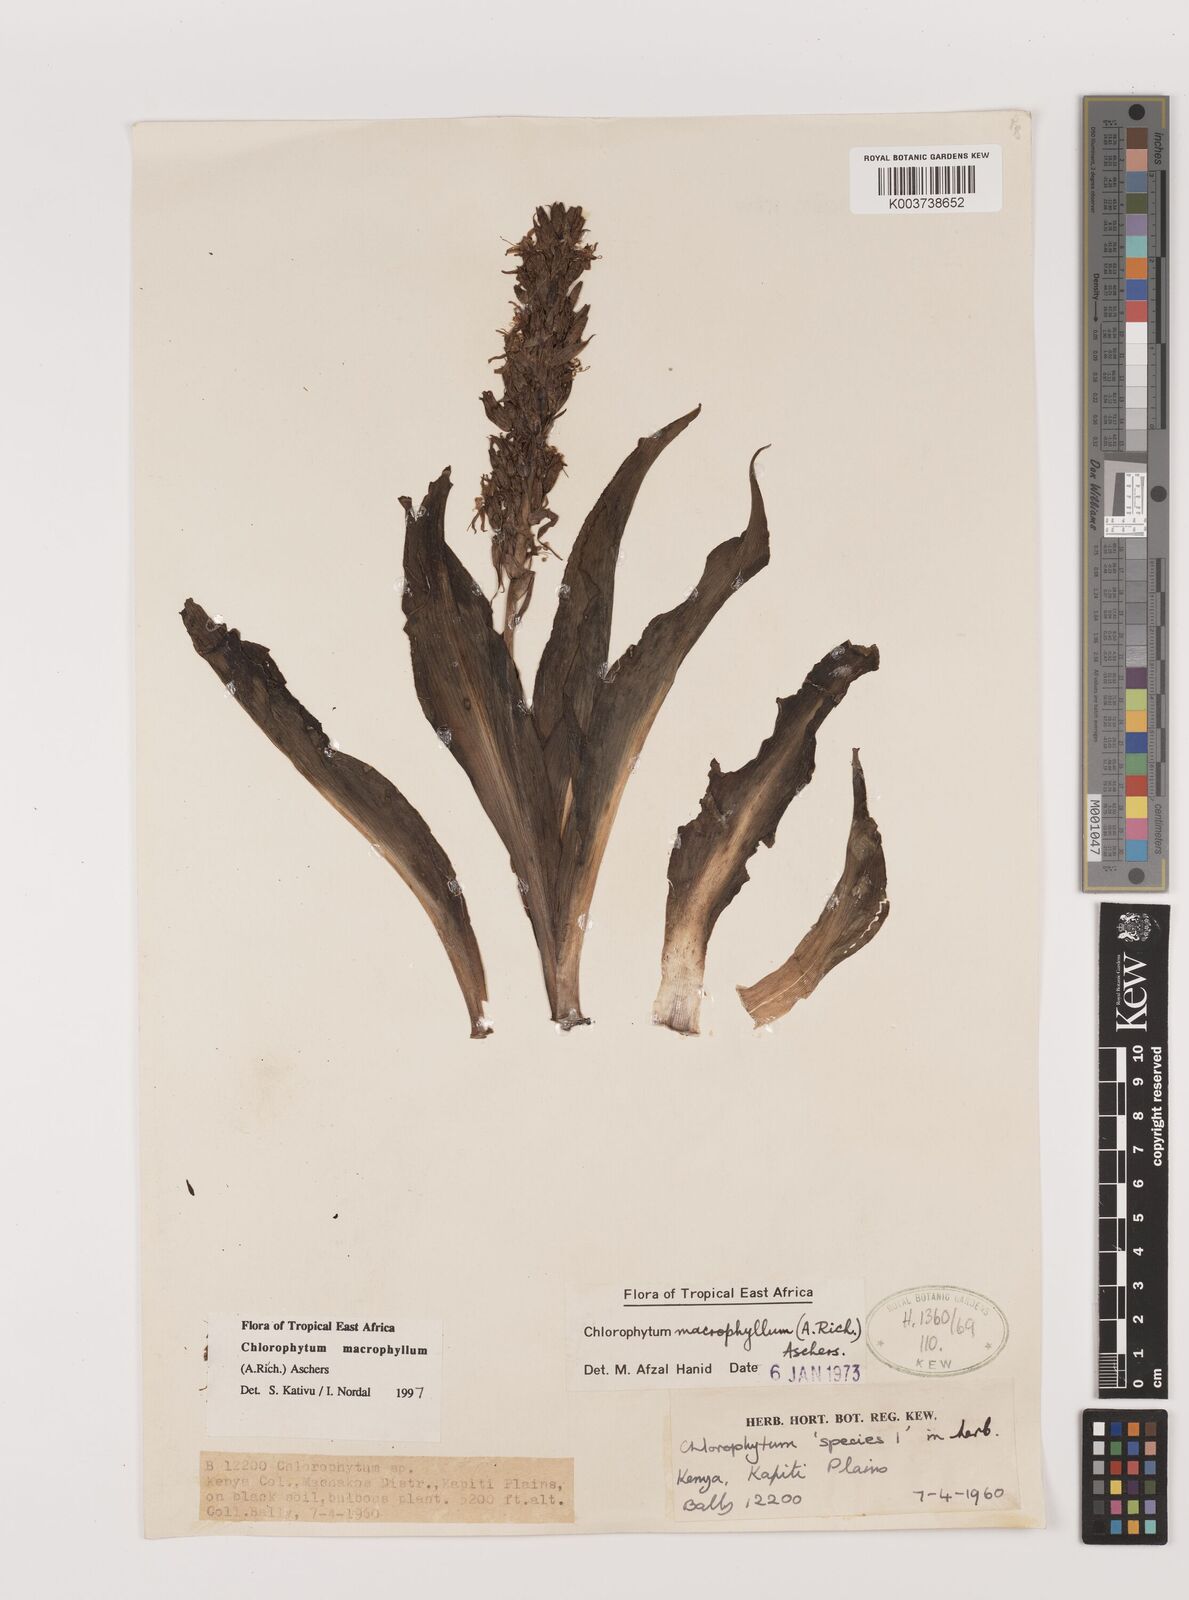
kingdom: Plantae
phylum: Tracheophyta
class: Liliopsida
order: Asparagales
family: Asparagaceae
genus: Chlorophytum
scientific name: Chlorophytum macrophyllum
